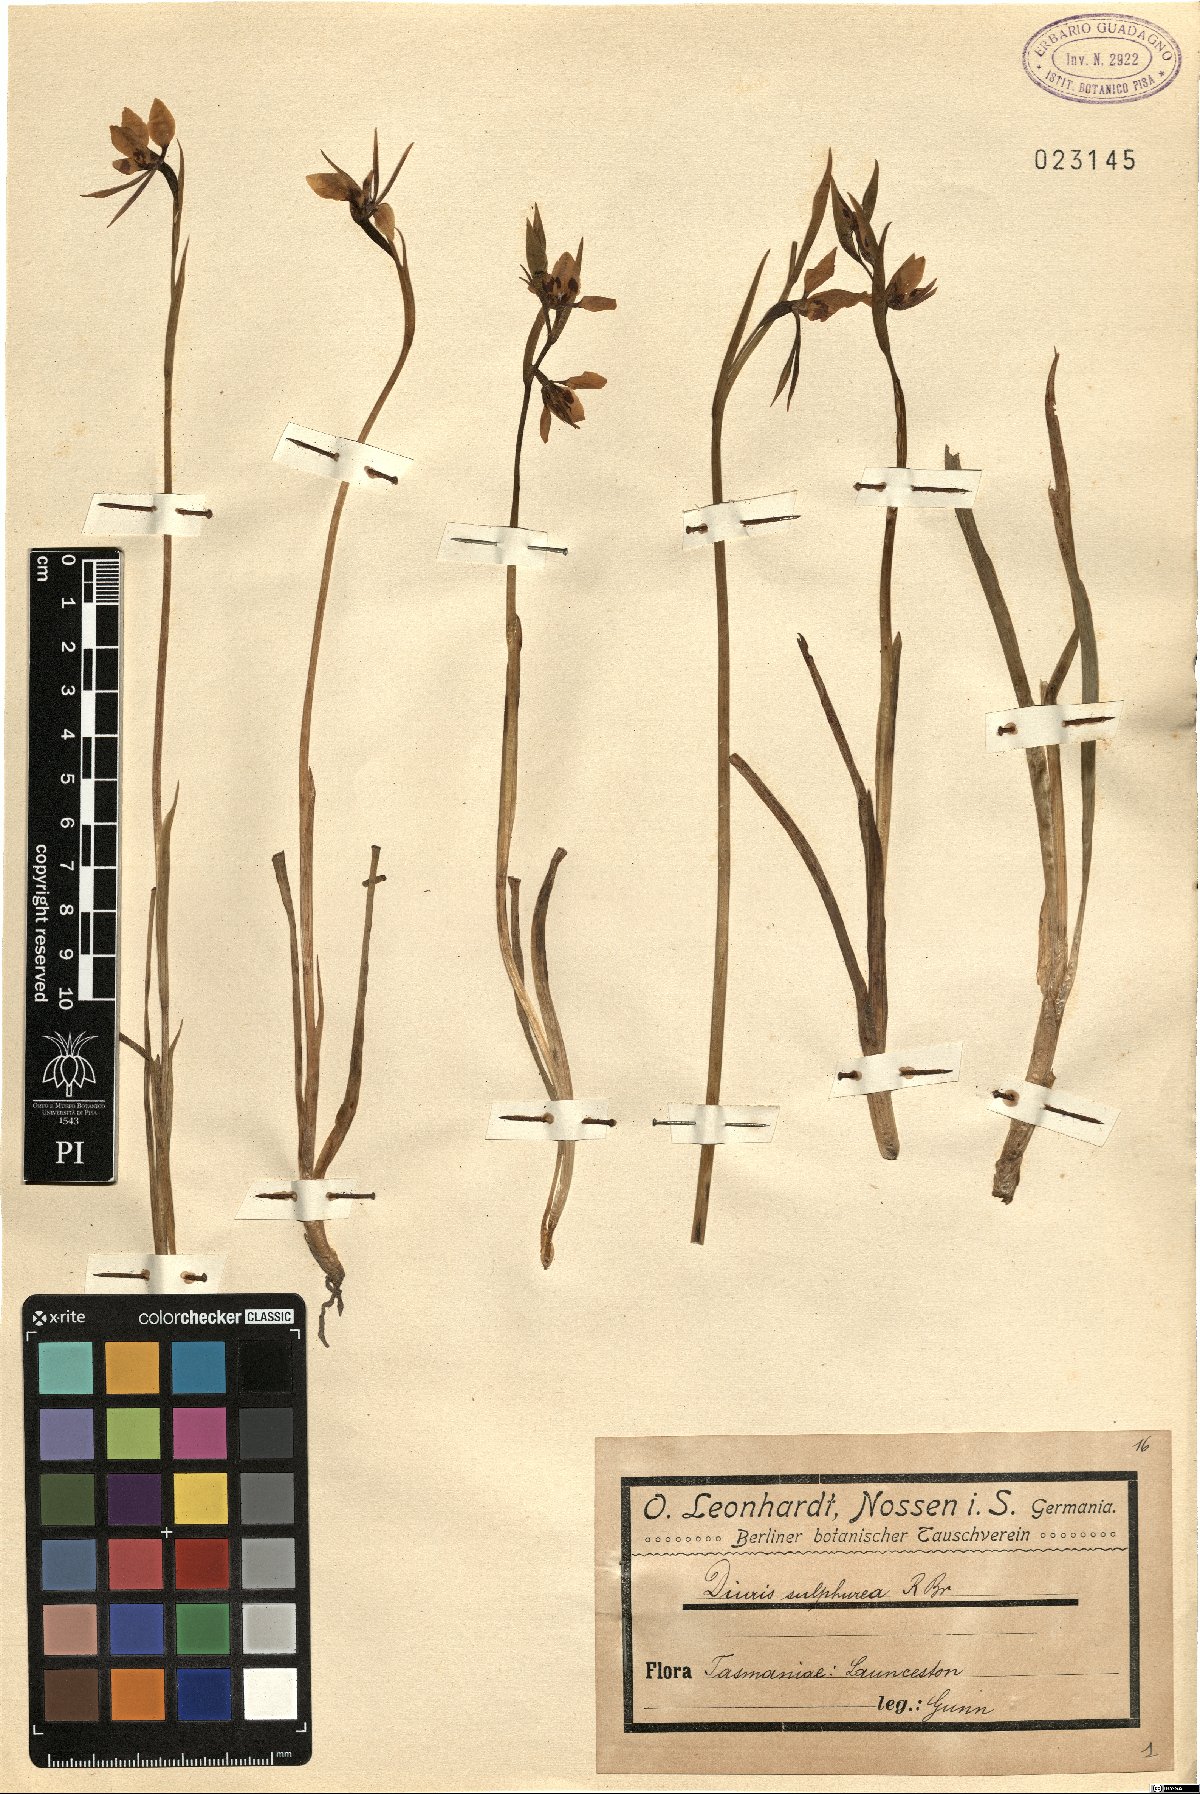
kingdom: Plantae
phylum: Tracheophyta
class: Liliopsida
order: Asparagales
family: Orchidaceae
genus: Diuris
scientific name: Diuris sulphurea
